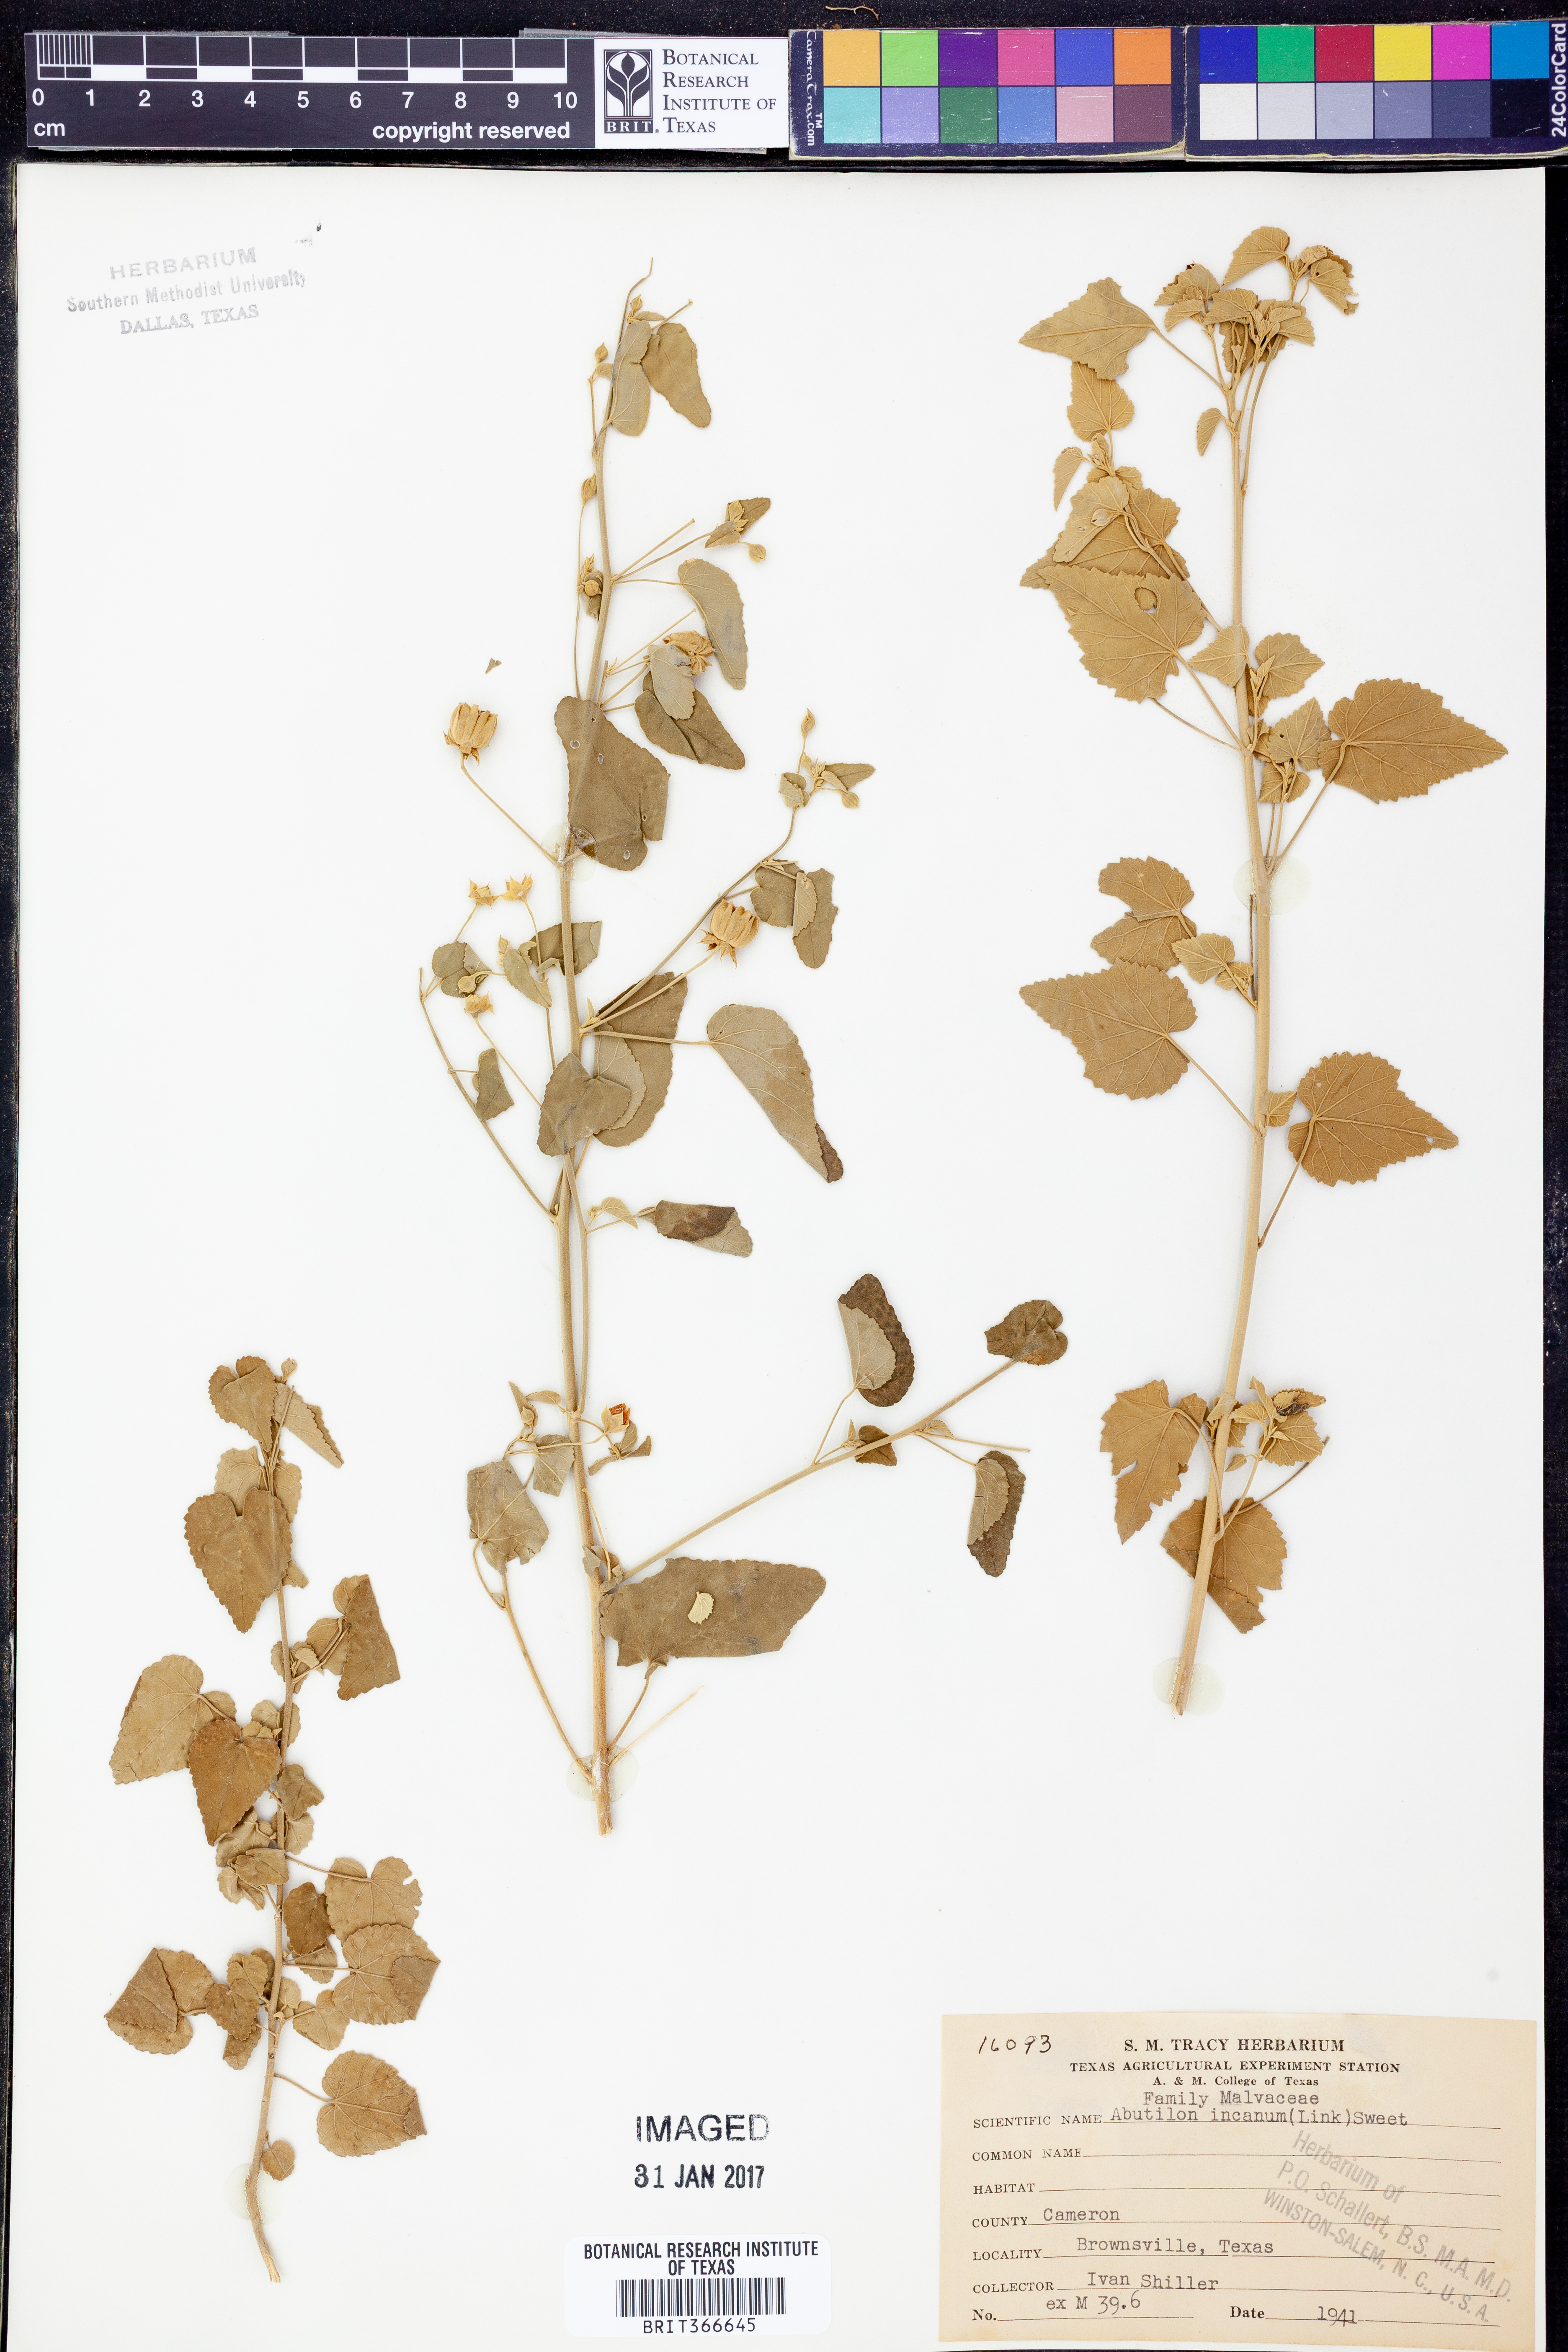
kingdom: Plantae
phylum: Tracheophyta
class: Magnoliopsida
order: Malvales
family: Malvaceae
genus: Abutilon
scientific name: Abutilon incanum
